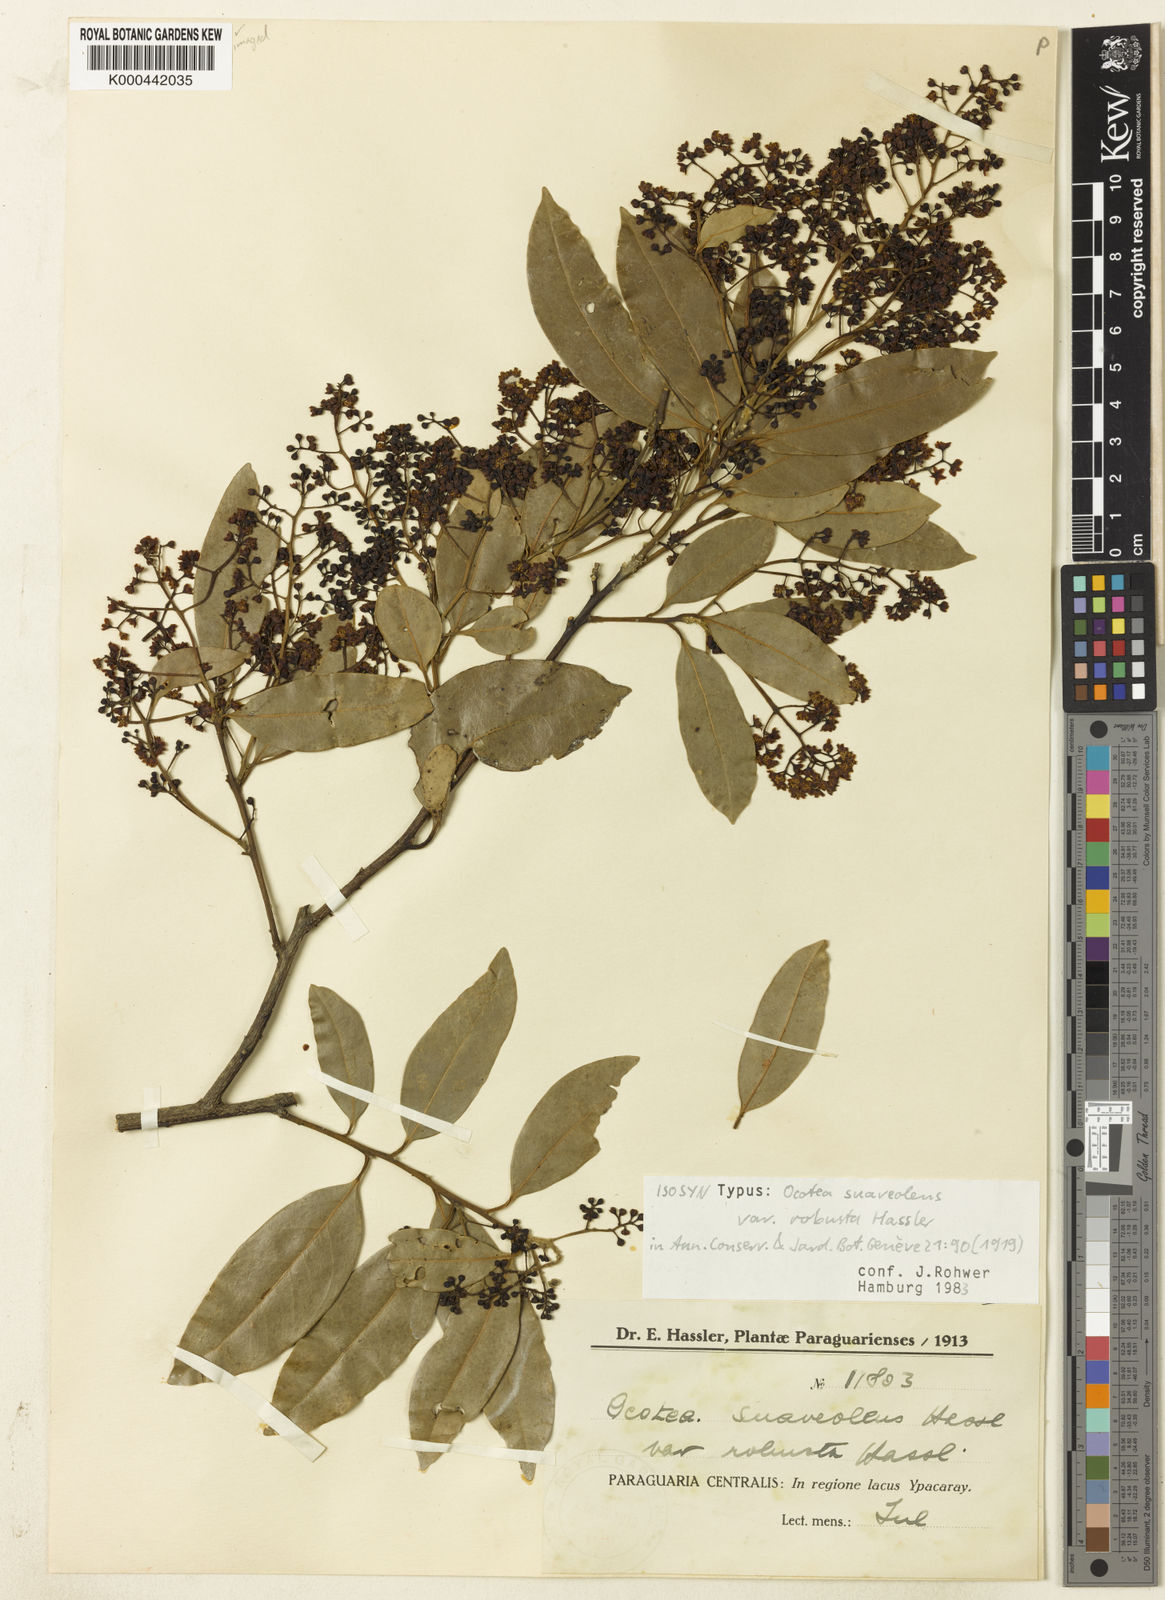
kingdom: Plantae
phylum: Tracheophyta
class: Magnoliopsida
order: Laurales
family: Lauraceae
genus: Ocotea
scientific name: Ocotea diospyrifolia
